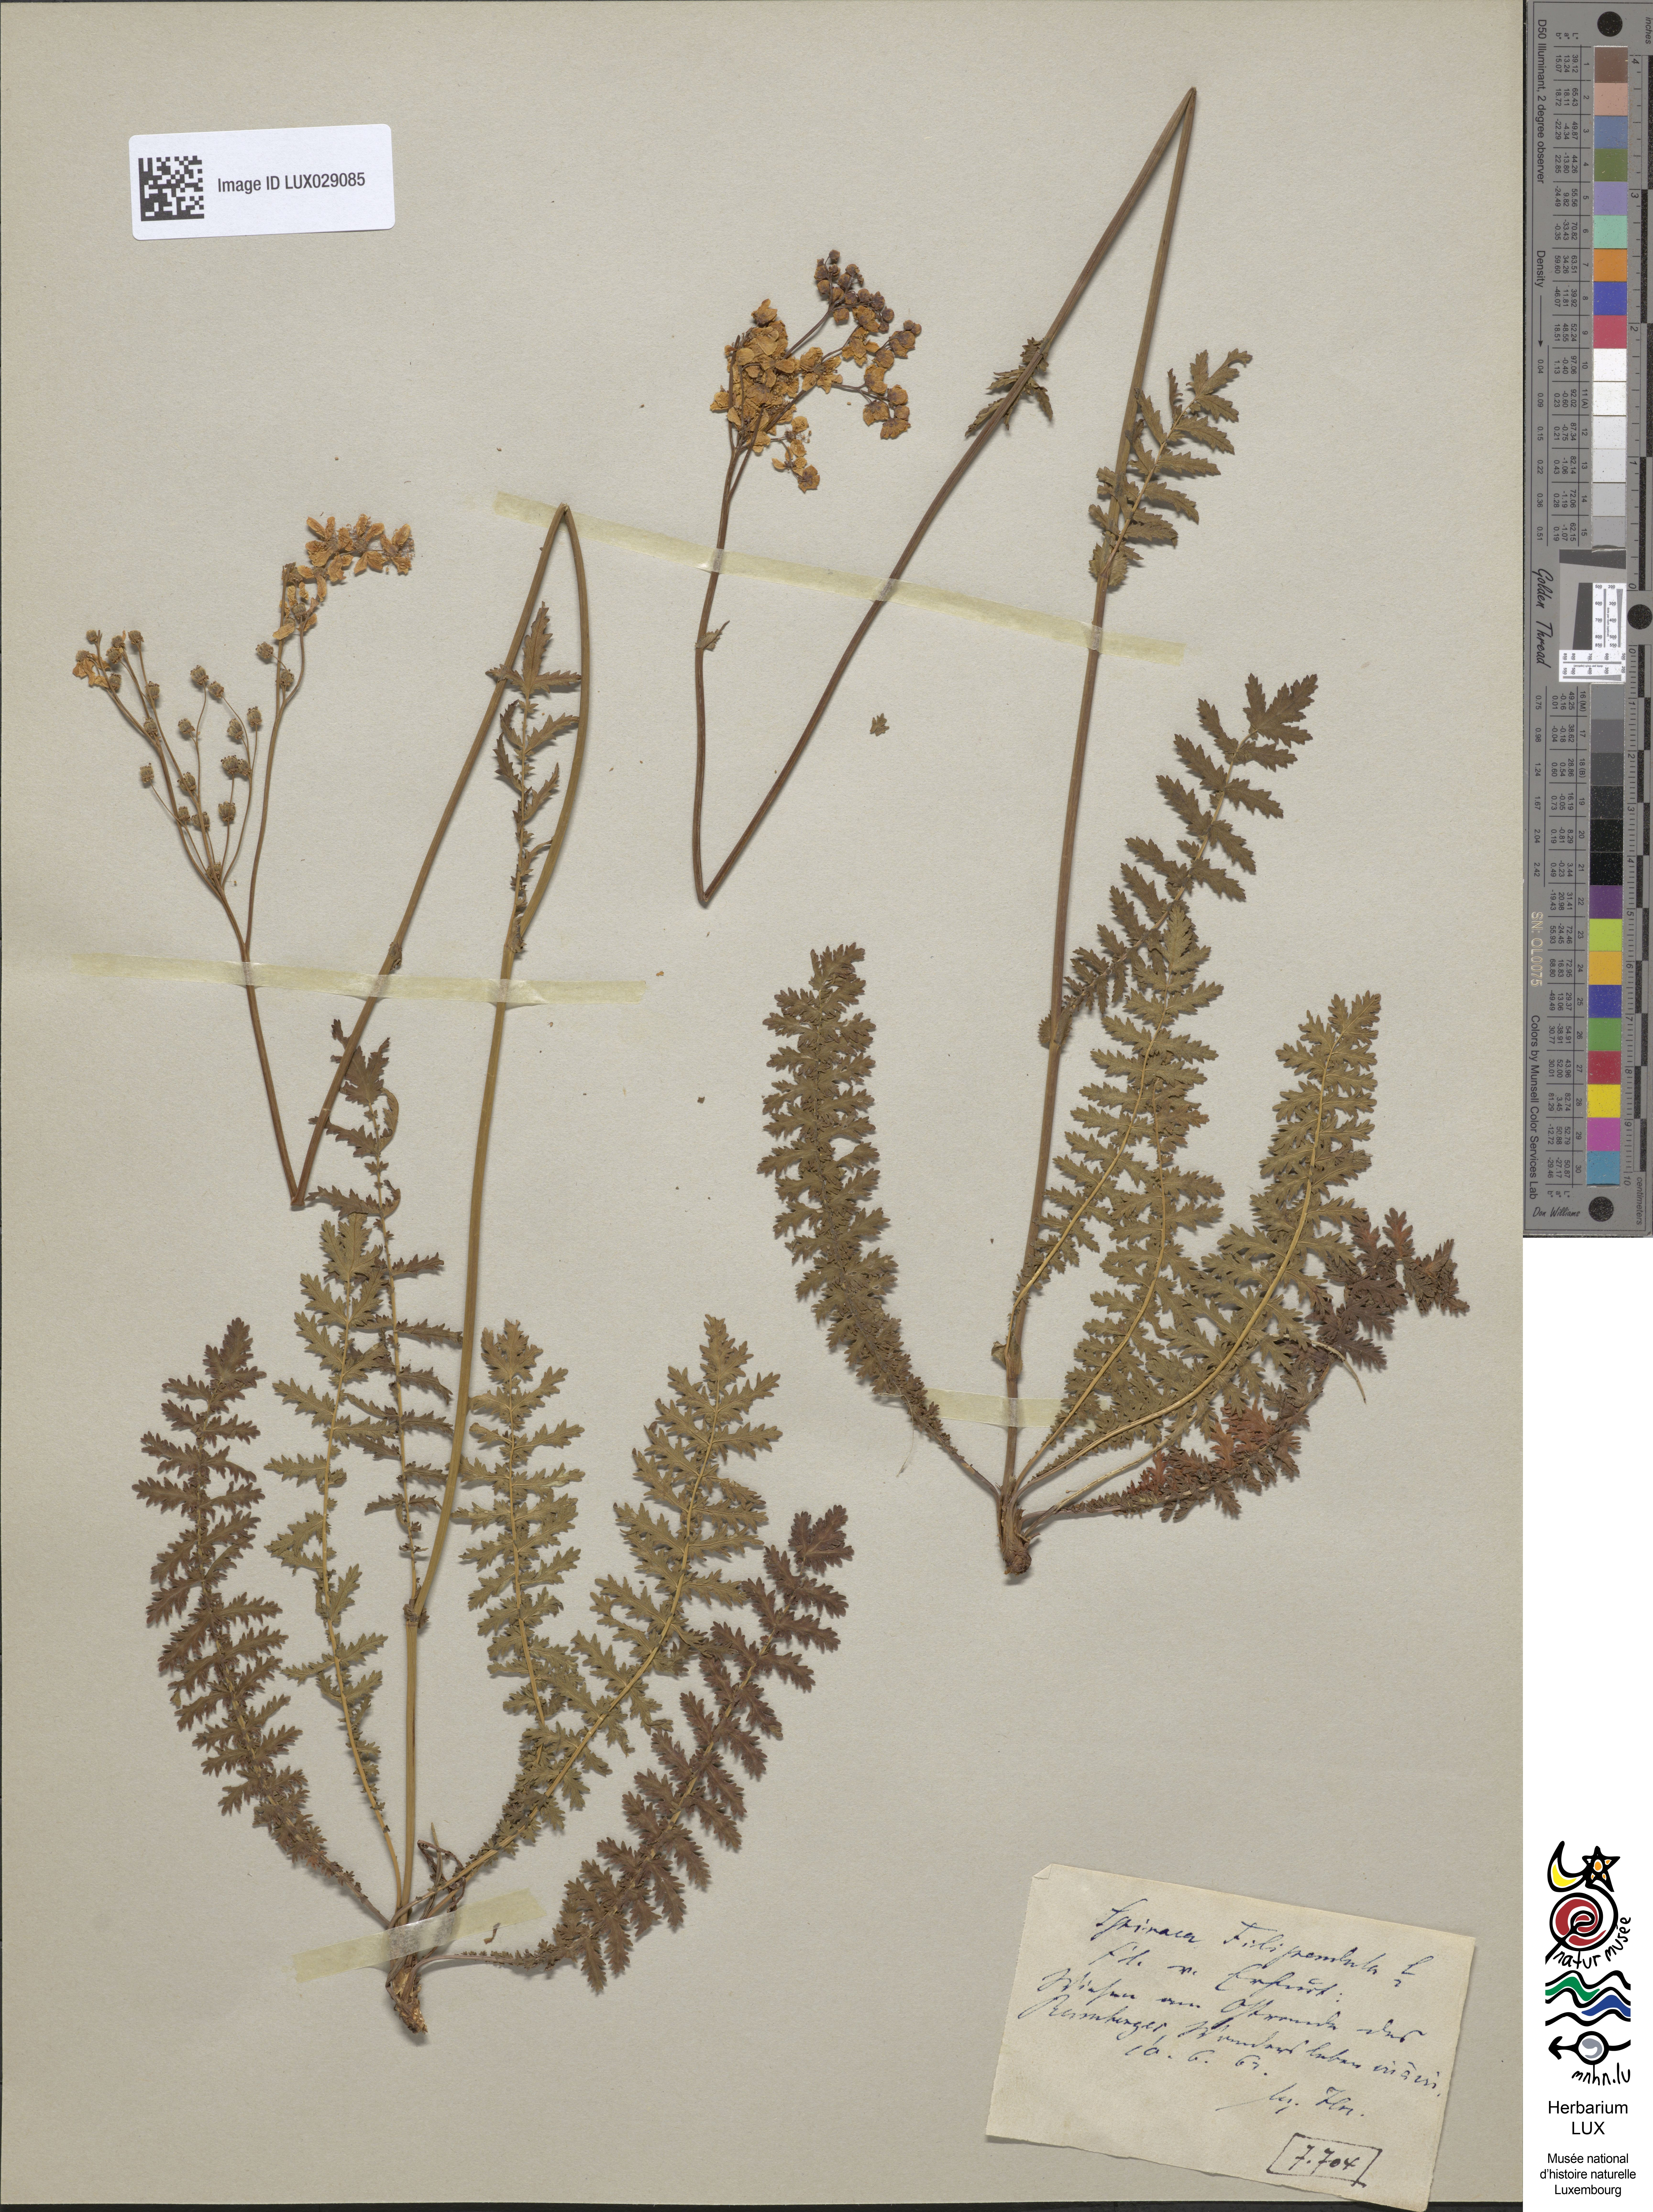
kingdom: Plantae
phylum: Tracheophyta
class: Magnoliopsida
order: Rosales
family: Rosaceae
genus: Filipendula
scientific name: Filipendula vulgaris
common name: Dropwort
